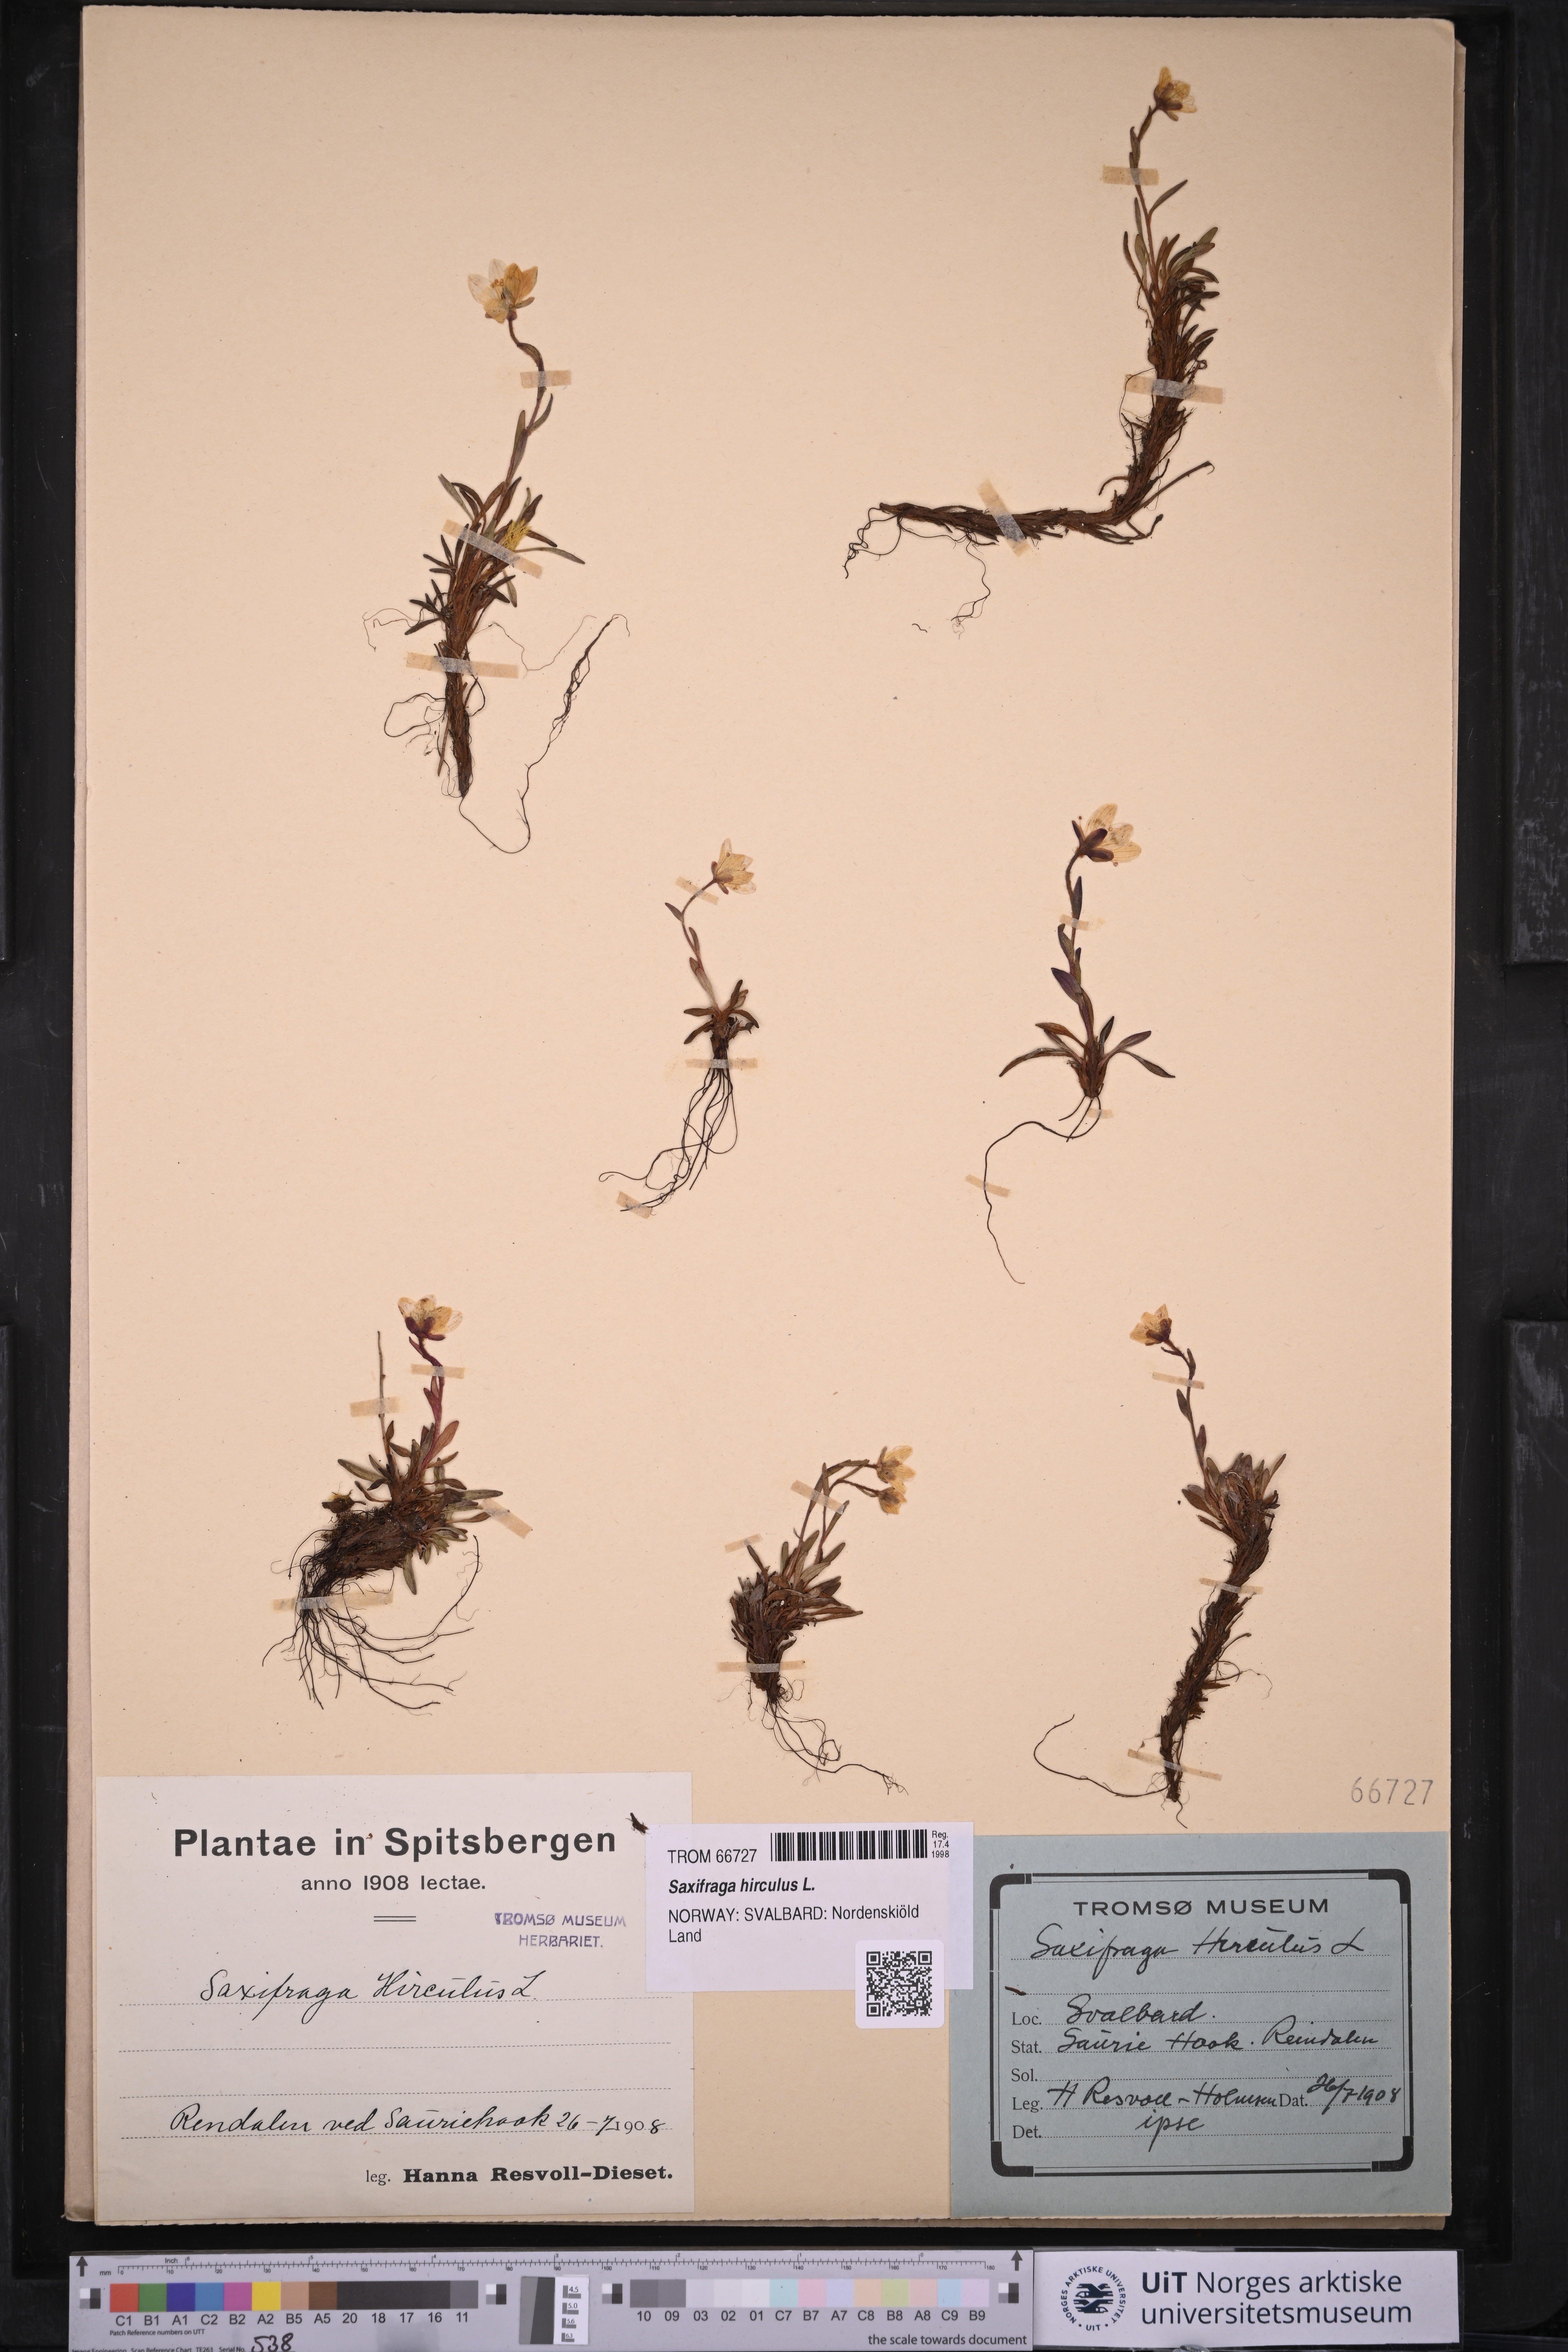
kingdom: Plantae
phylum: Tracheophyta
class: Magnoliopsida
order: Saxifragales
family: Saxifragaceae
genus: Saxifraga
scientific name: Saxifraga hirculus
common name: Yellow marsh saxifrage
